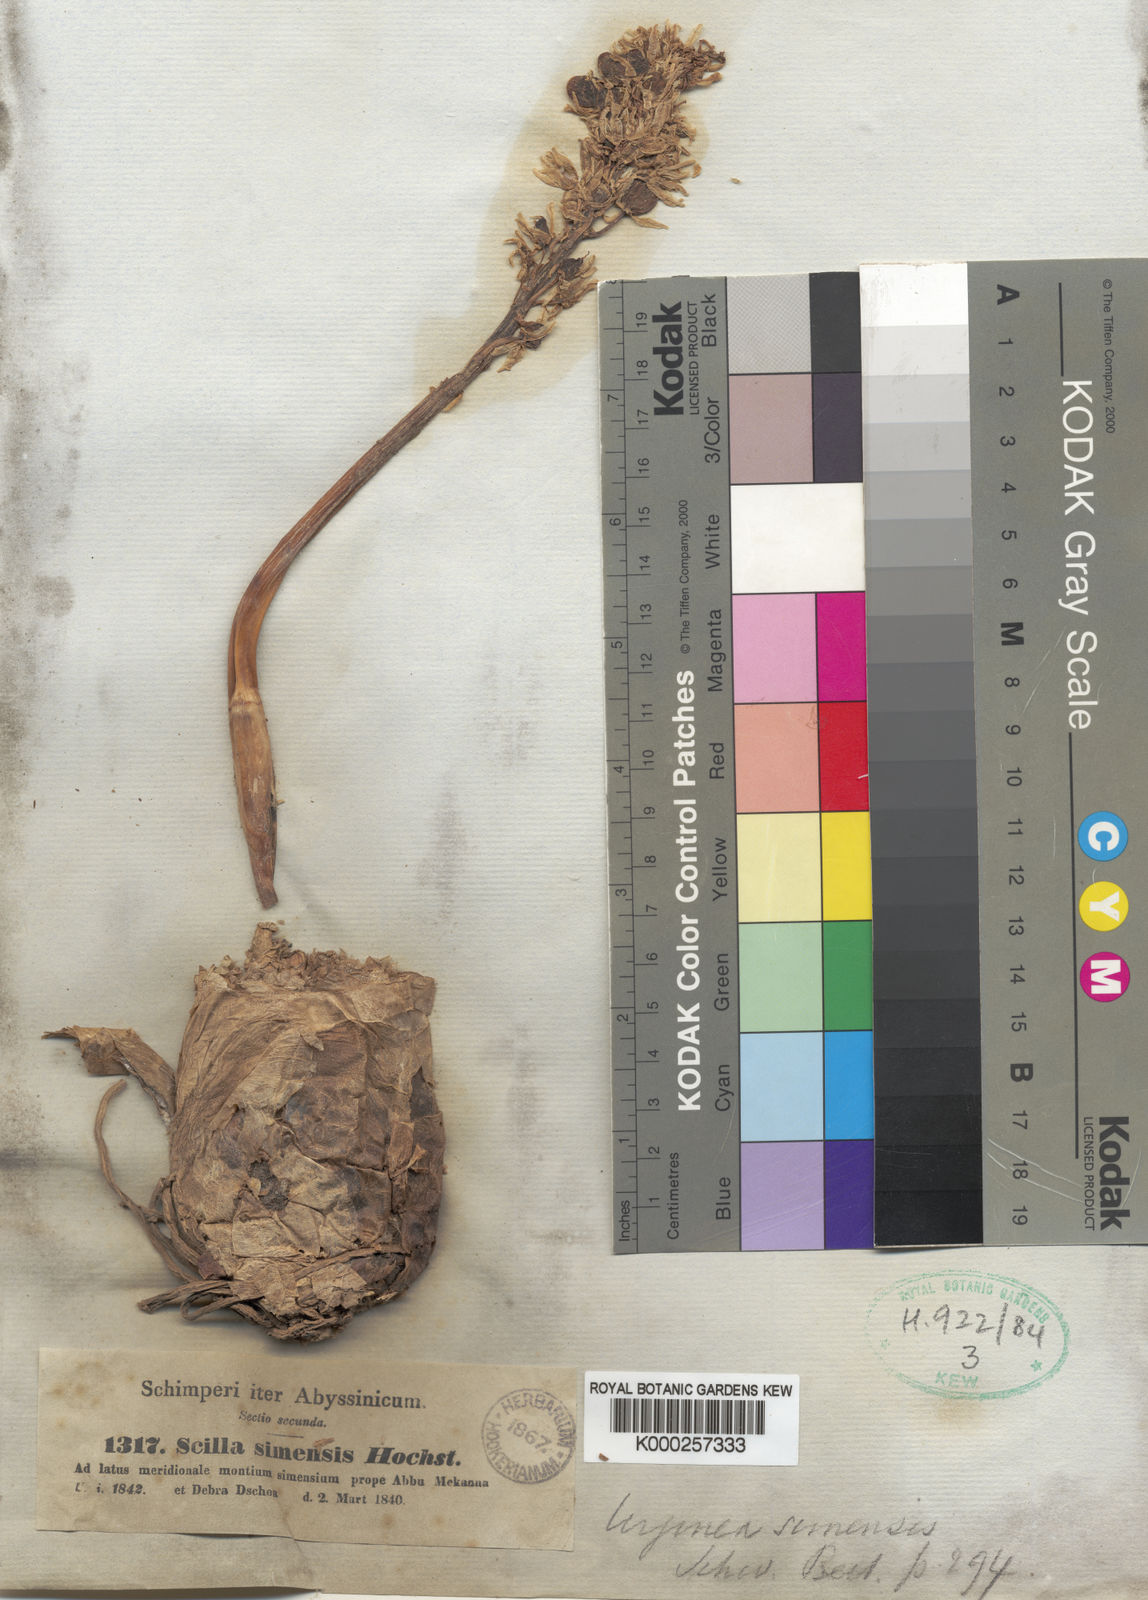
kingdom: Plantae
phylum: Tracheophyta
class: Liliopsida
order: Asparagales
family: Asparagaceae
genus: Drimia
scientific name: Drimia simensis
